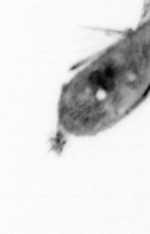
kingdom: Animalia
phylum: Arthropoda
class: Maxillopoda
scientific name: Maxillopoda
